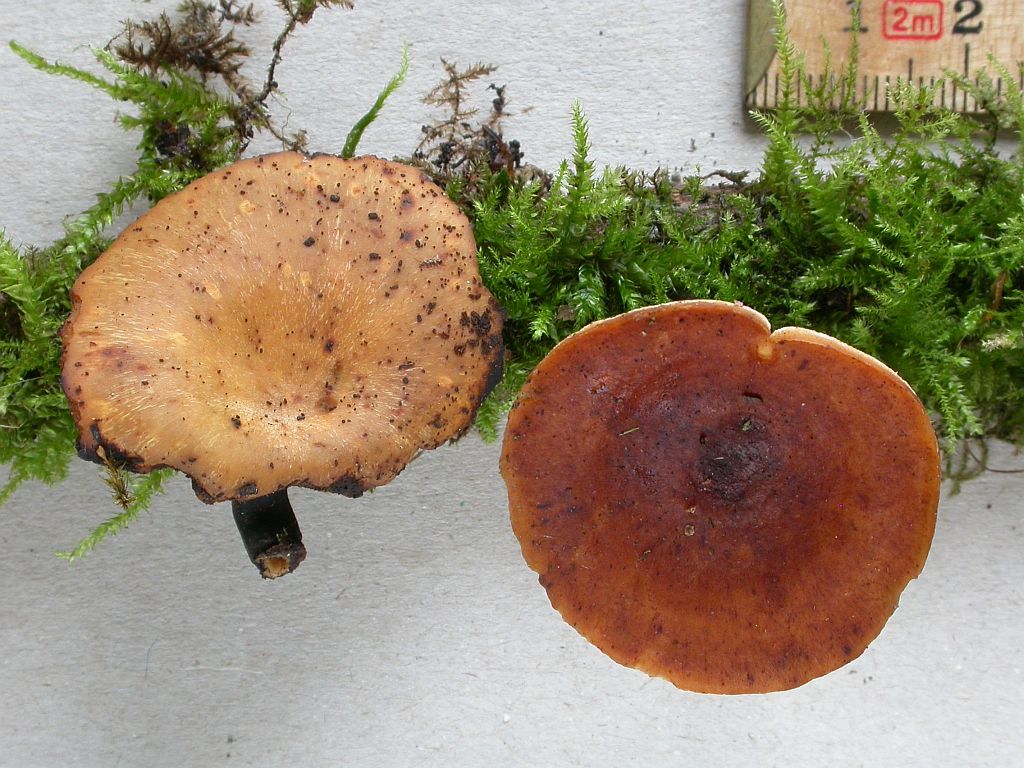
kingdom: Fungi
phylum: Basidiomycota
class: Agaricomycetes
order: Polyporales
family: Polyporaceae
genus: Picipes
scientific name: Picipes tubaeformis
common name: trompet-stilkporesvamp
